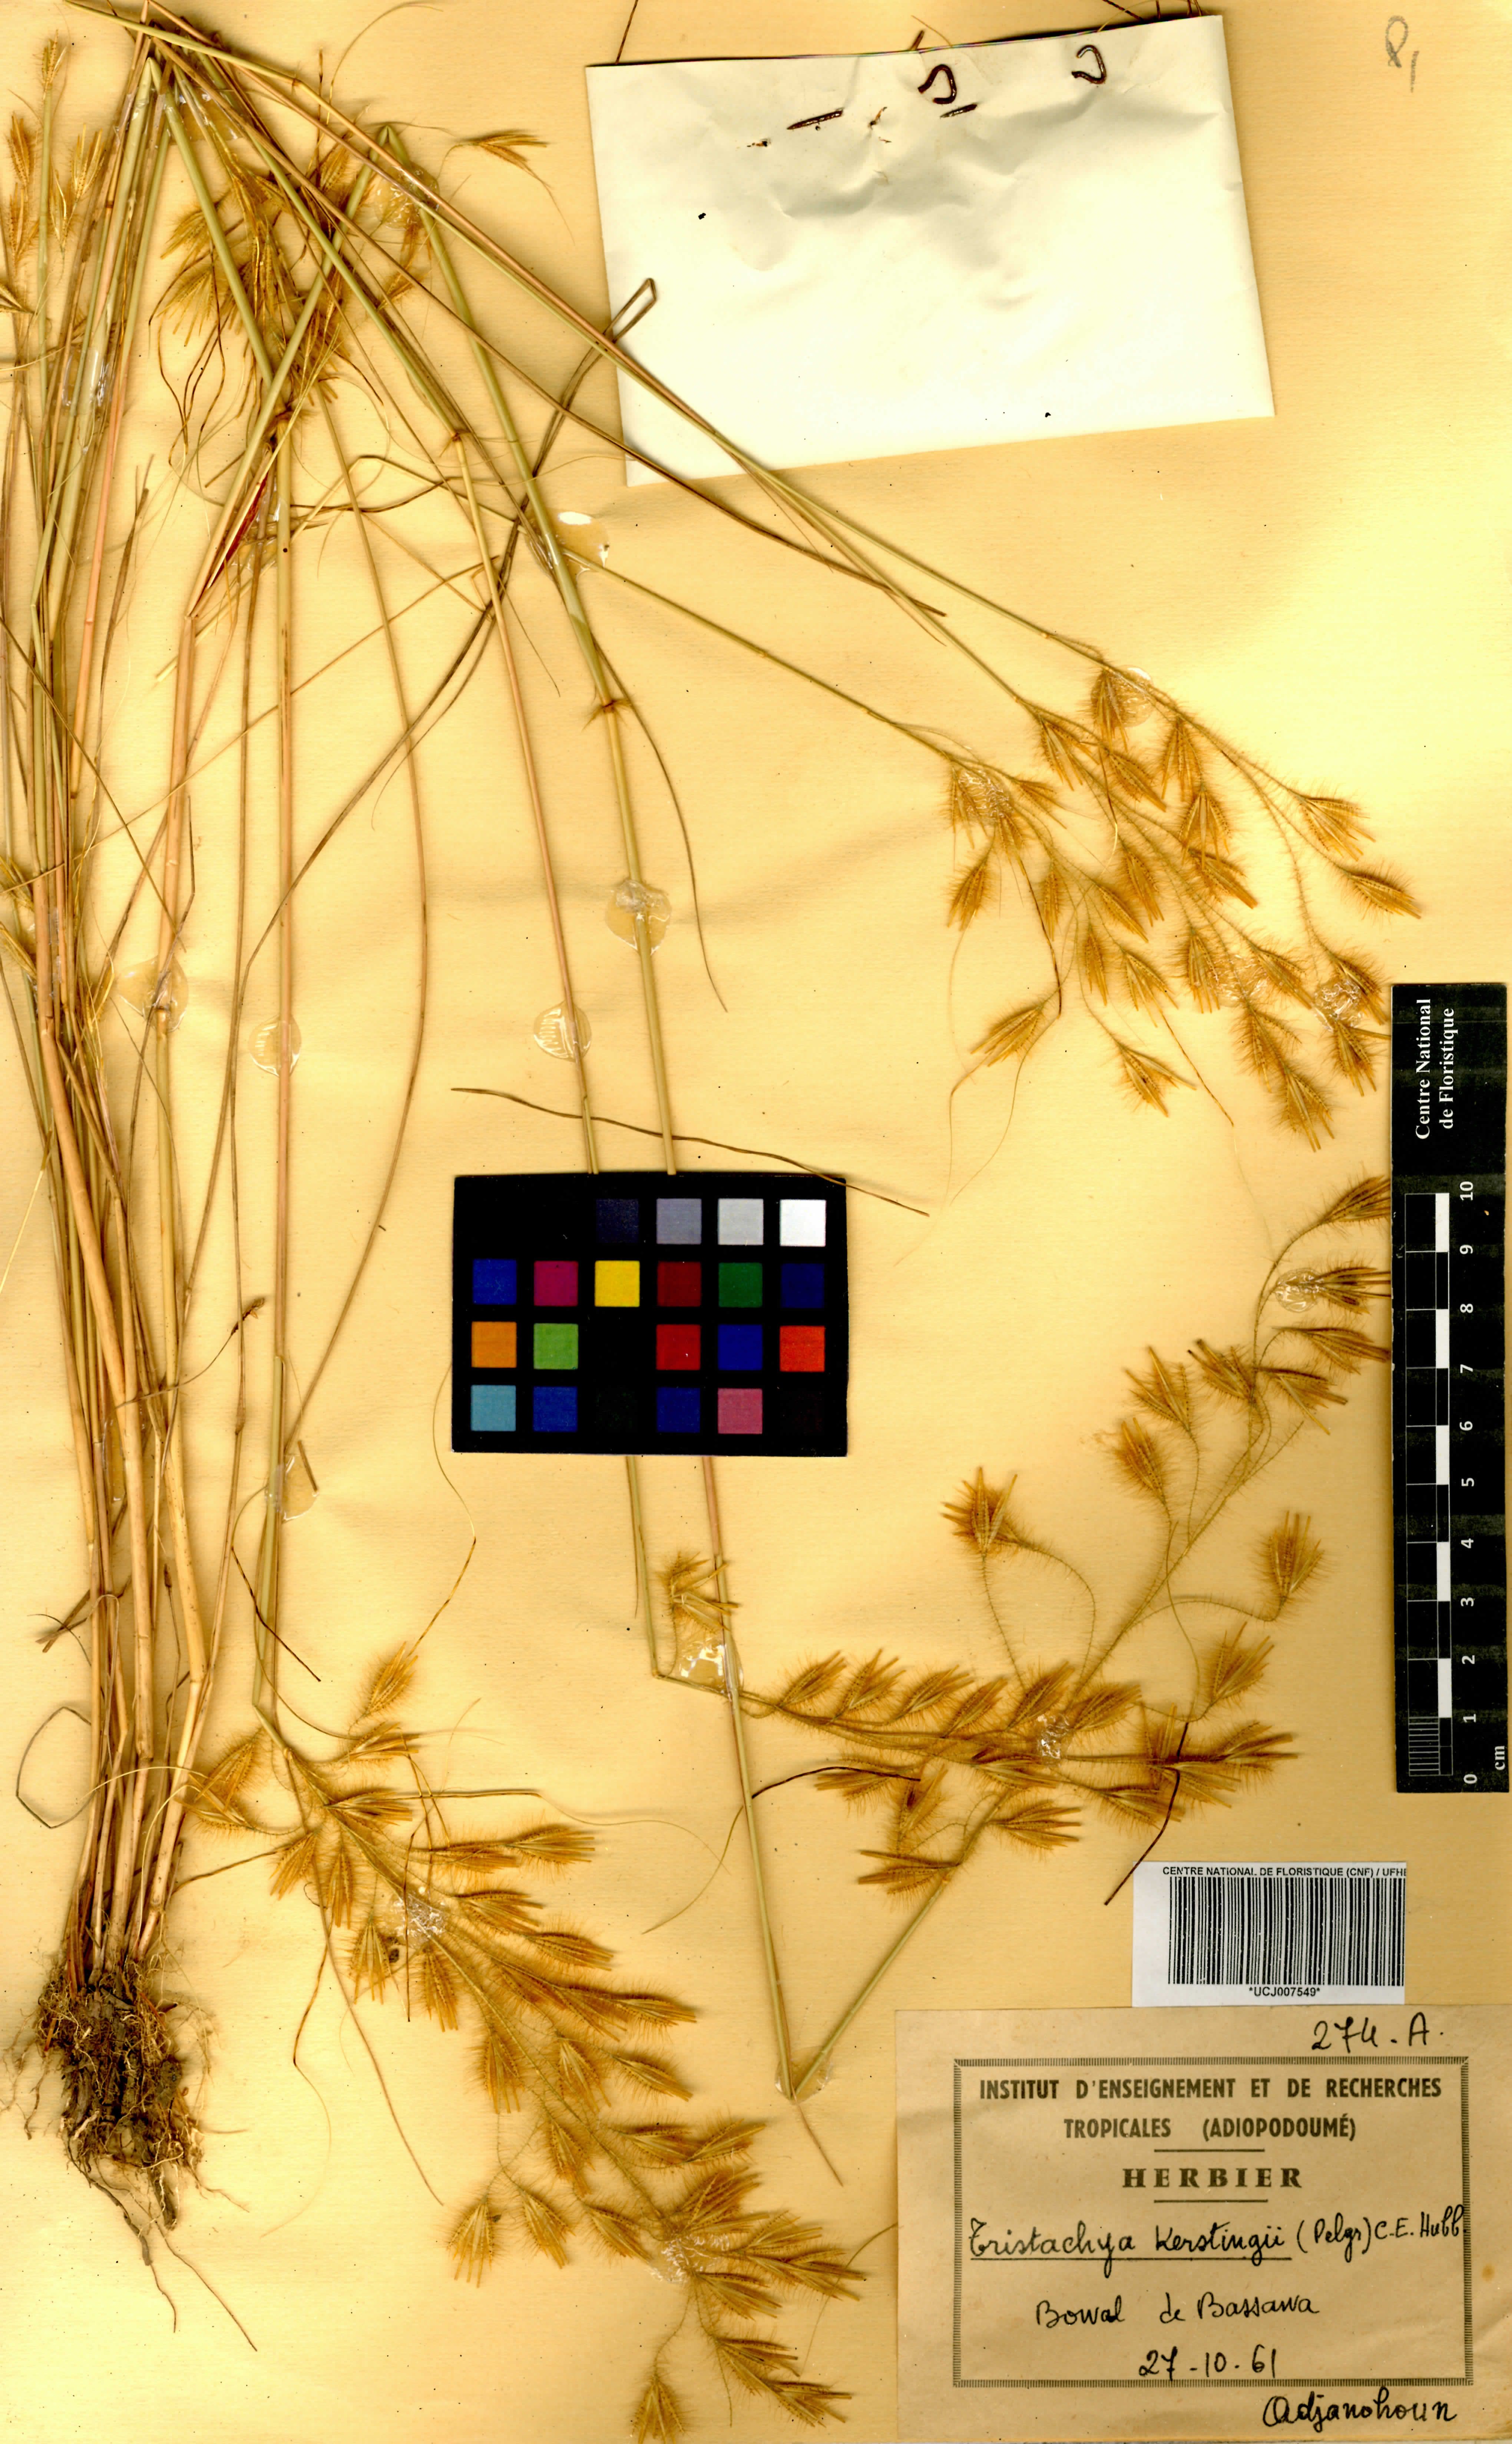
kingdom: Plantae
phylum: Tracheophyta
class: Liliopsida
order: Poales
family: Poaceae
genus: Loudetiopsis
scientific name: Loudetiopsis kerstingii
